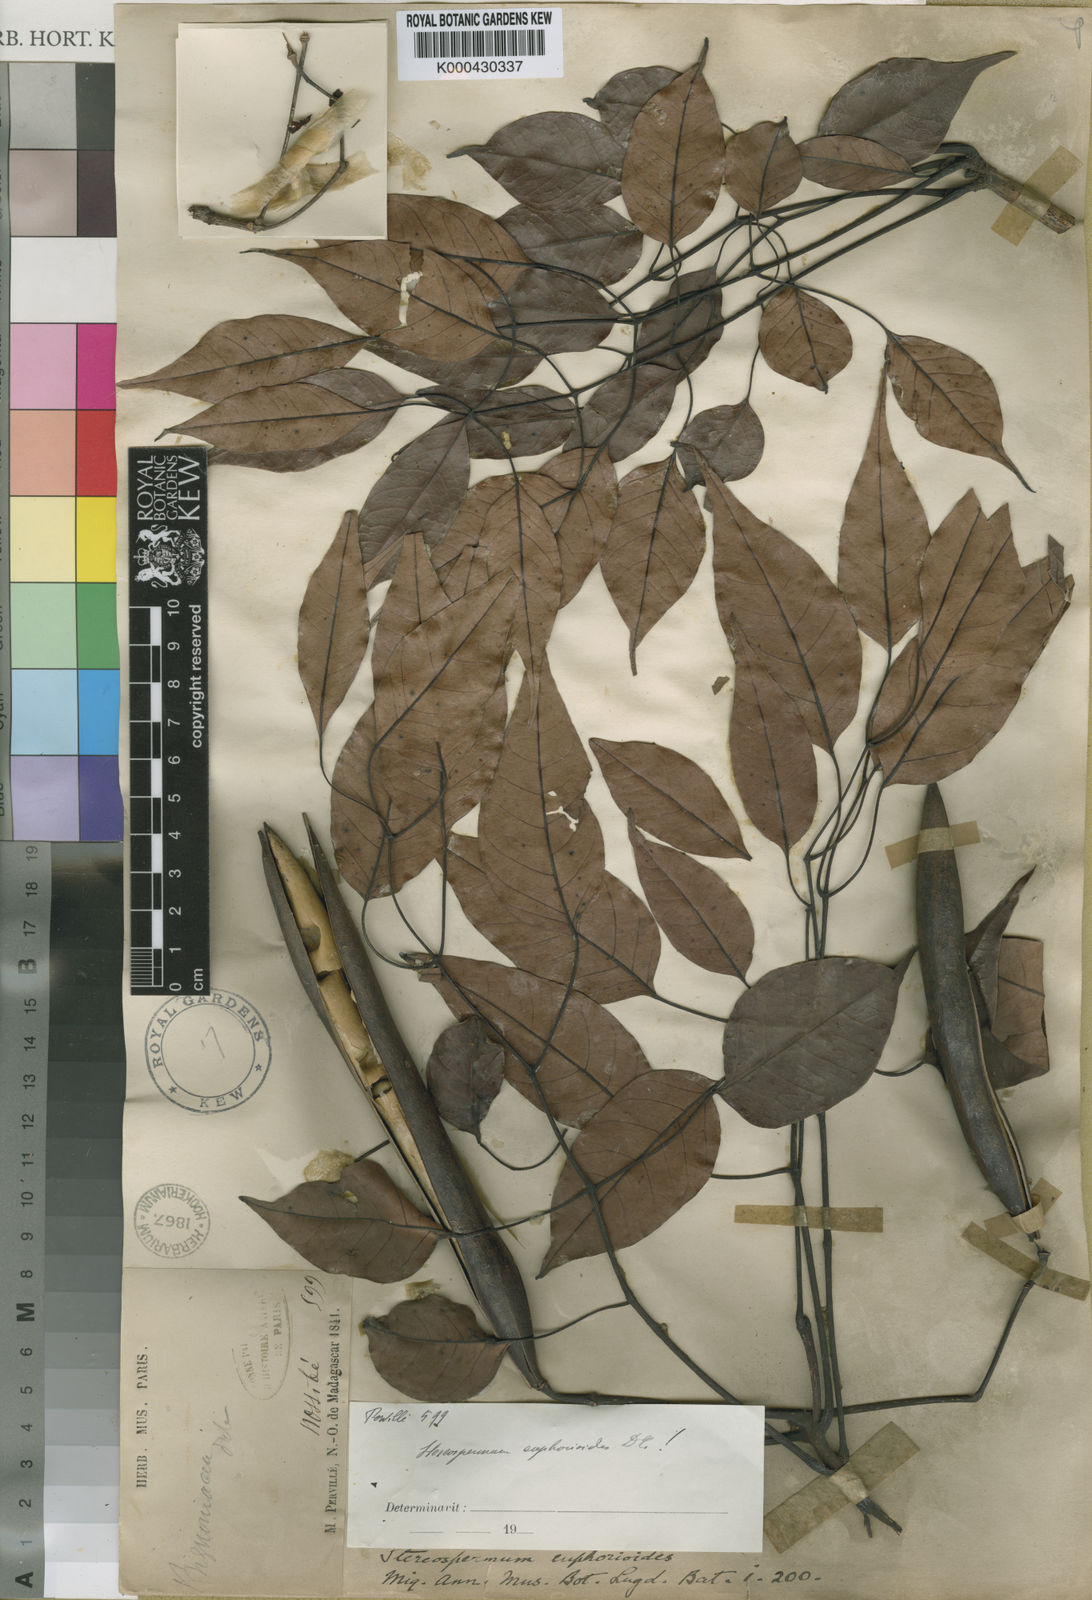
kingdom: Plantae
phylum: Tracheophyta
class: Magnoliopsida
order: Lamiales
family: Bignoniaceae
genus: Stereospermum
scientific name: Stereospermum euphorioides
